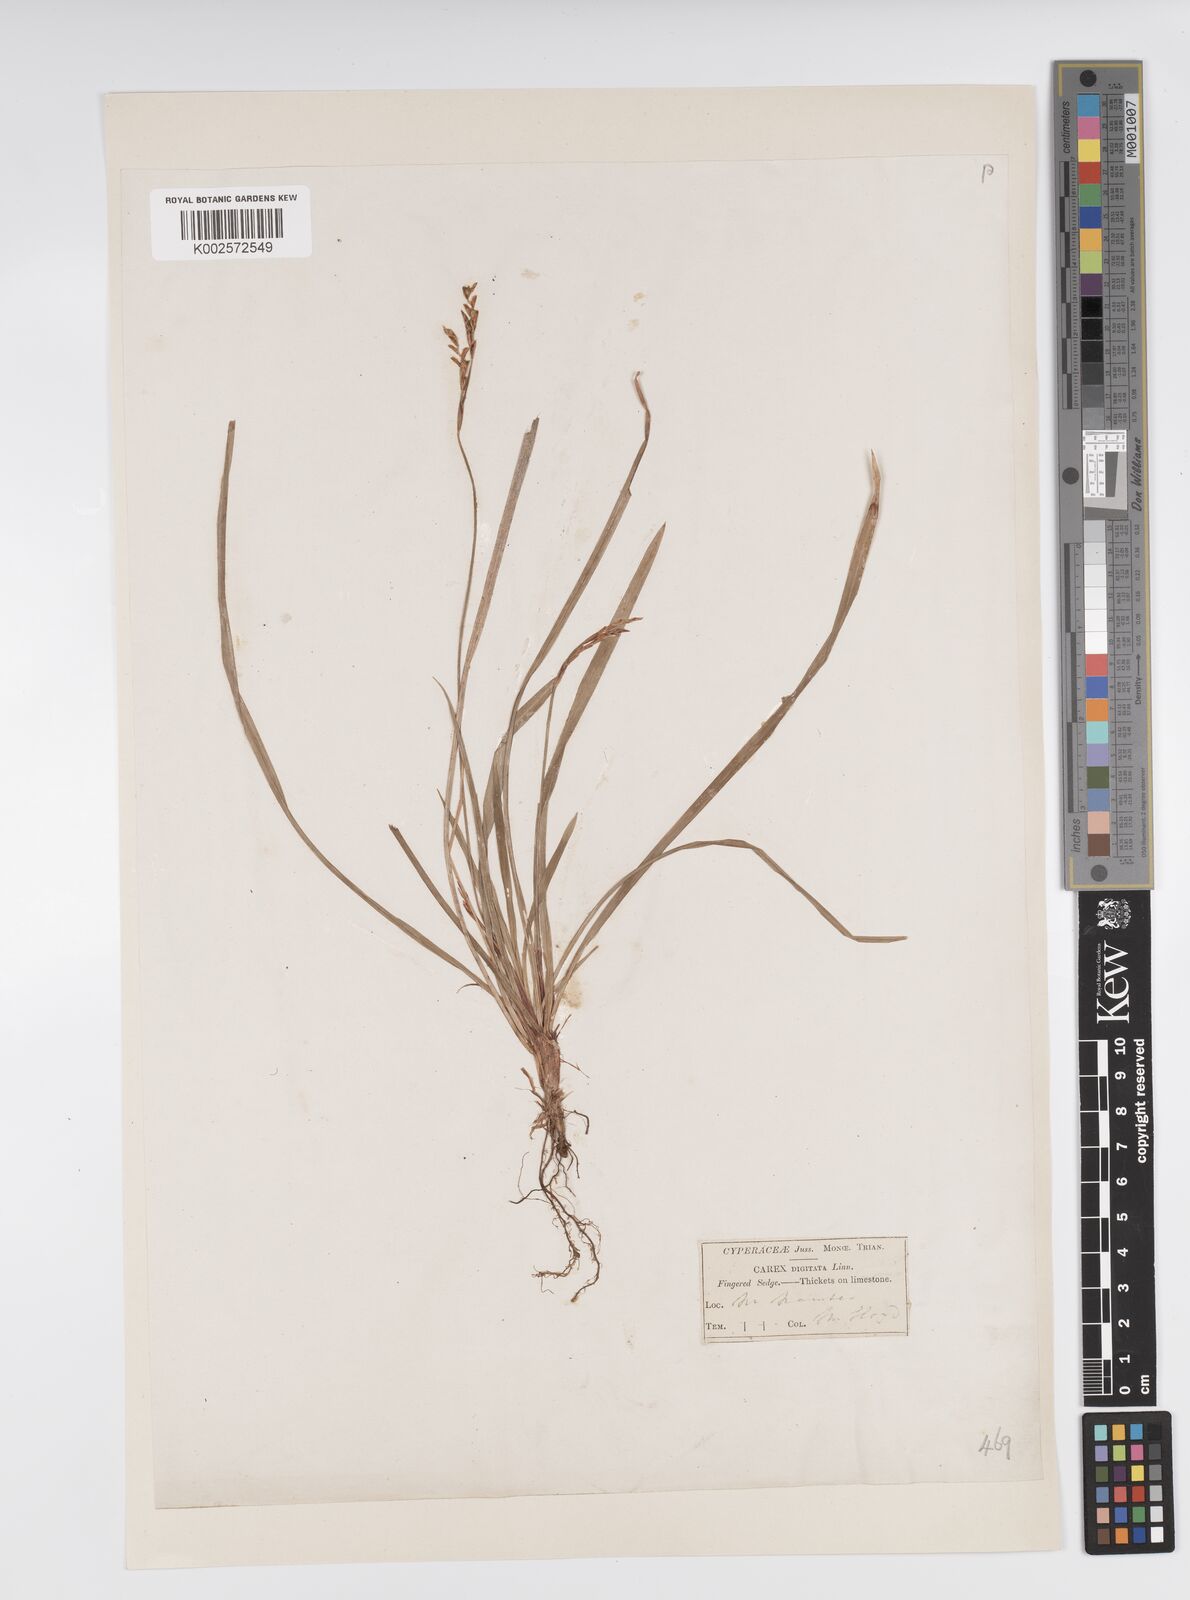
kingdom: Plantae
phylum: Tracheophyta
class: Liliopsida
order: Poales
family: Cyperaceae
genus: Carex
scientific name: Carex digitata
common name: Fingered sedge
